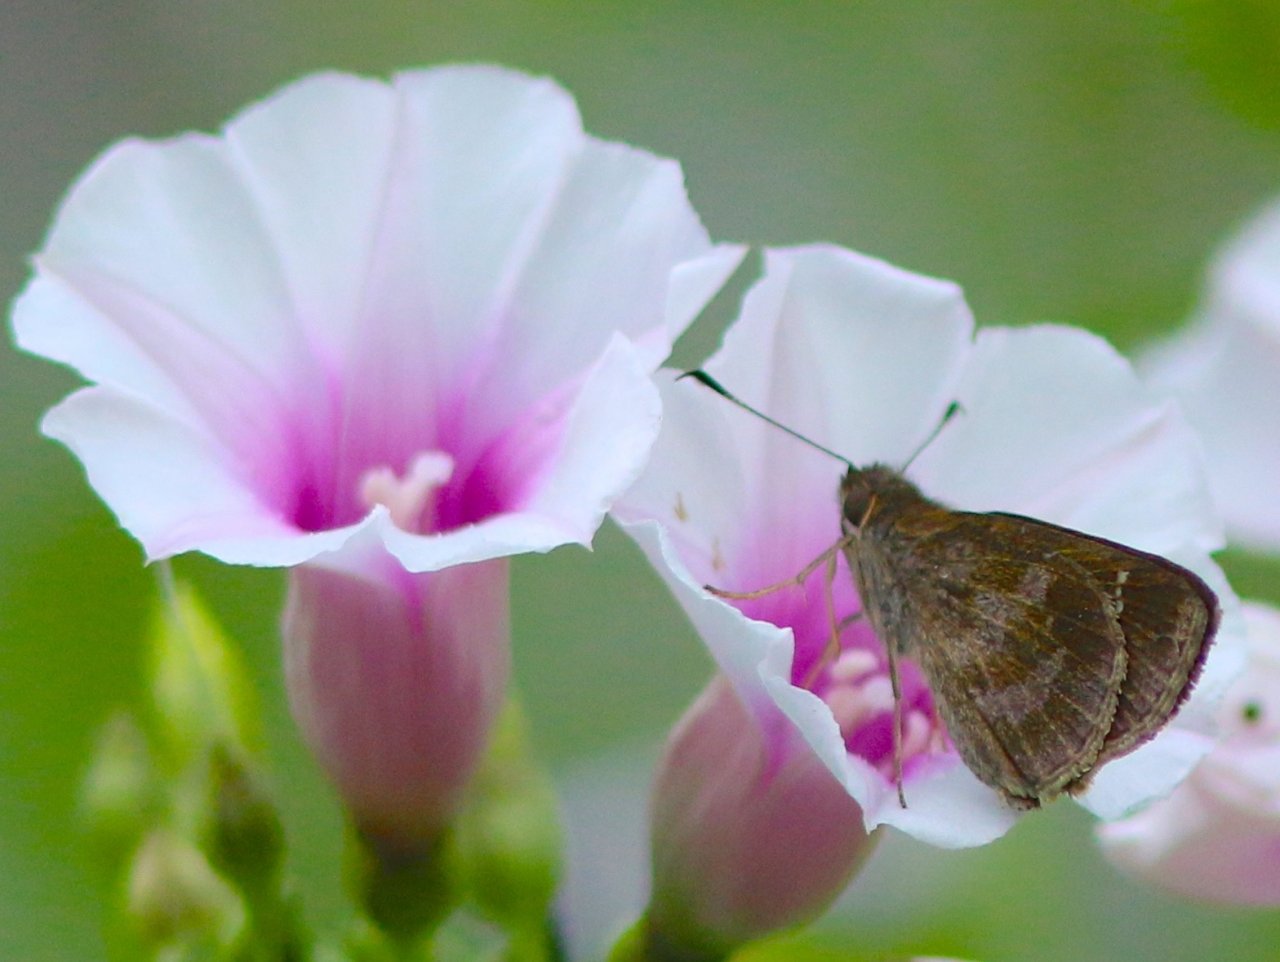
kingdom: Animalia
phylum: Arthropoda
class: Insecta
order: Lepidoptera
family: Hesperiidae
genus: Cymaenes
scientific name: Cymaenes odilia
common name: Fawn-spotted Skipper
